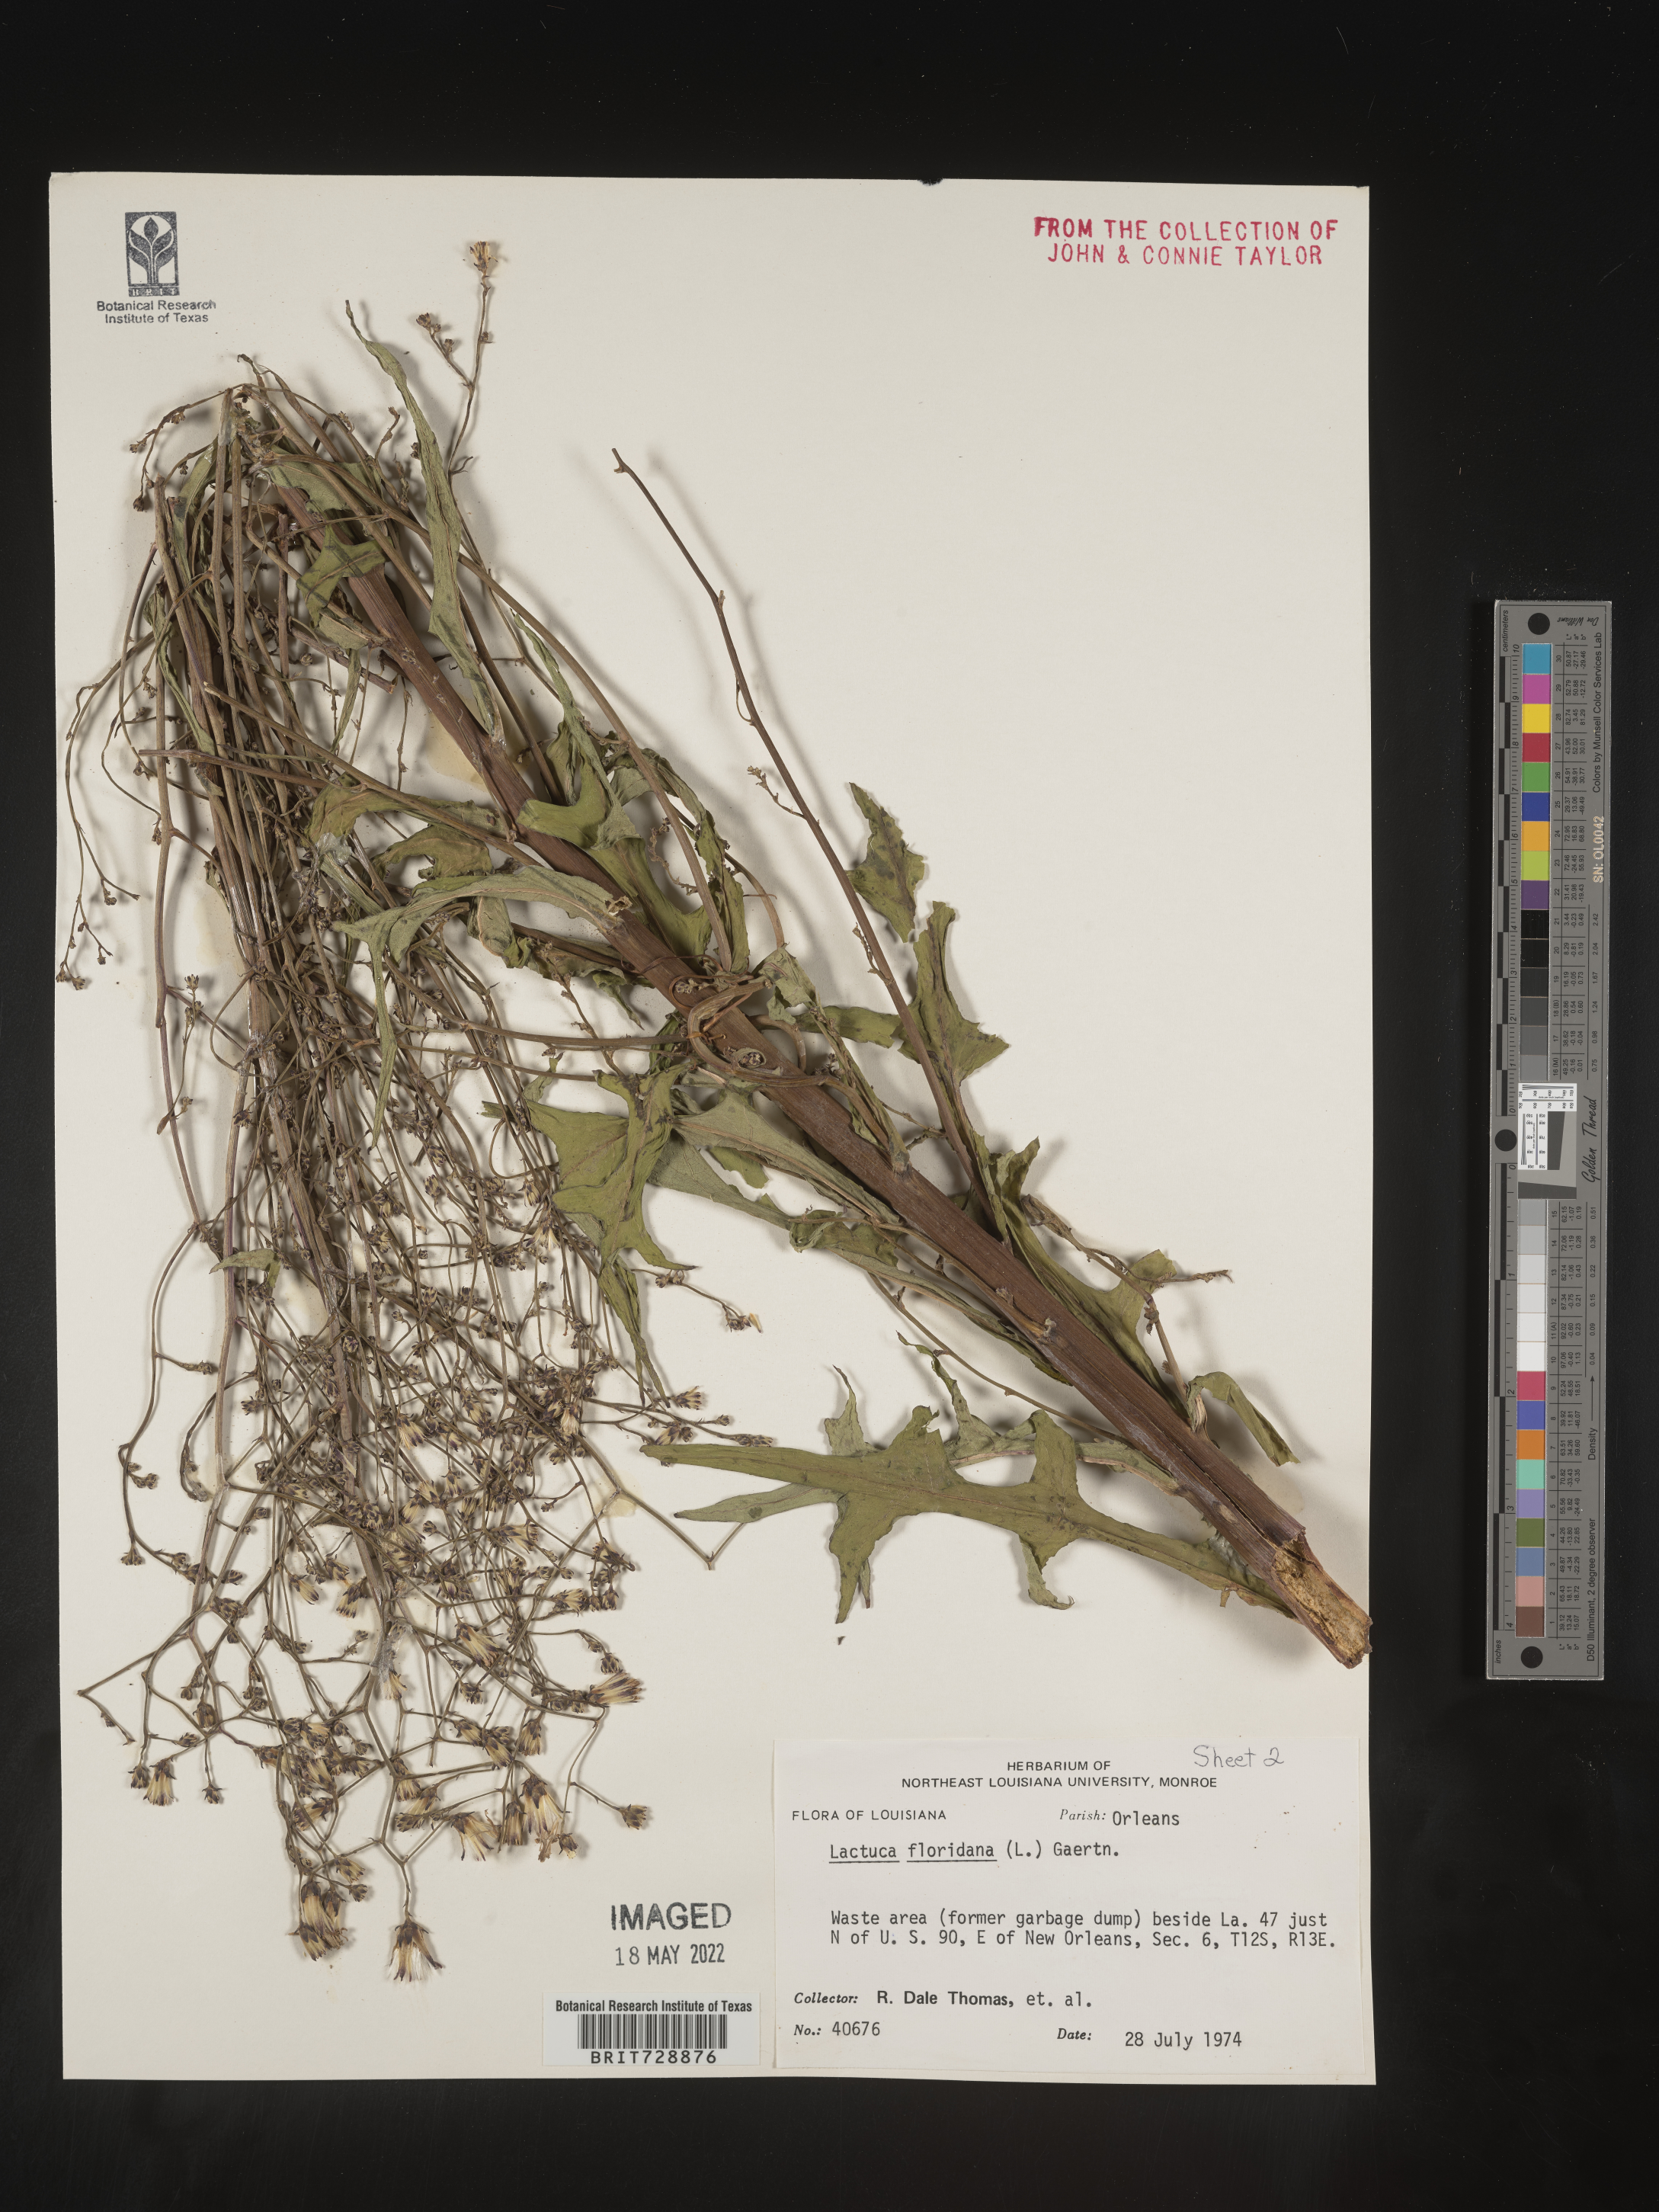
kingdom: Plantae
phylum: Tracheophyta
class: Magnoliopsida
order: Asterales
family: Asteraceae
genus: Lactuca
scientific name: Lactuca floridana
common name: Woodland lettuce
